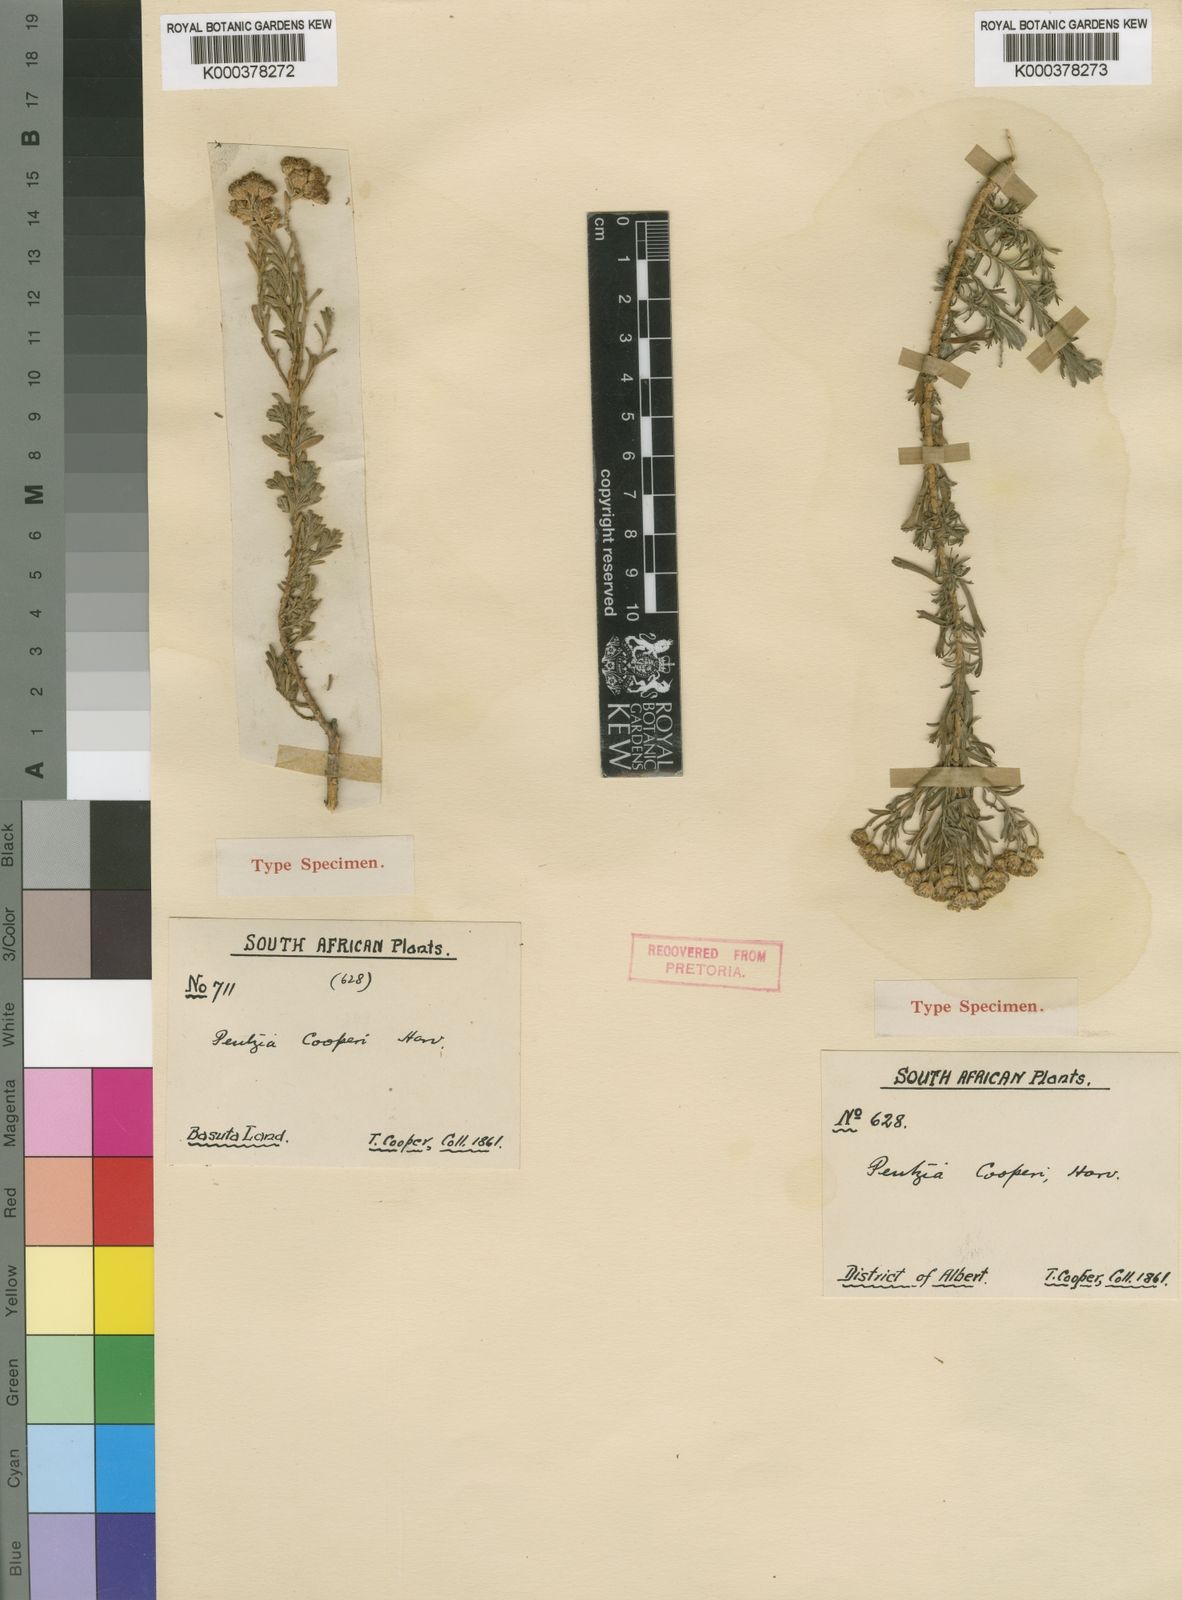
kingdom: Plantae
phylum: Tracheophyta
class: Magnoliopsida
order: Asterales
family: Asteraceae
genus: Pentzia
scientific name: Pentzia cooperi
